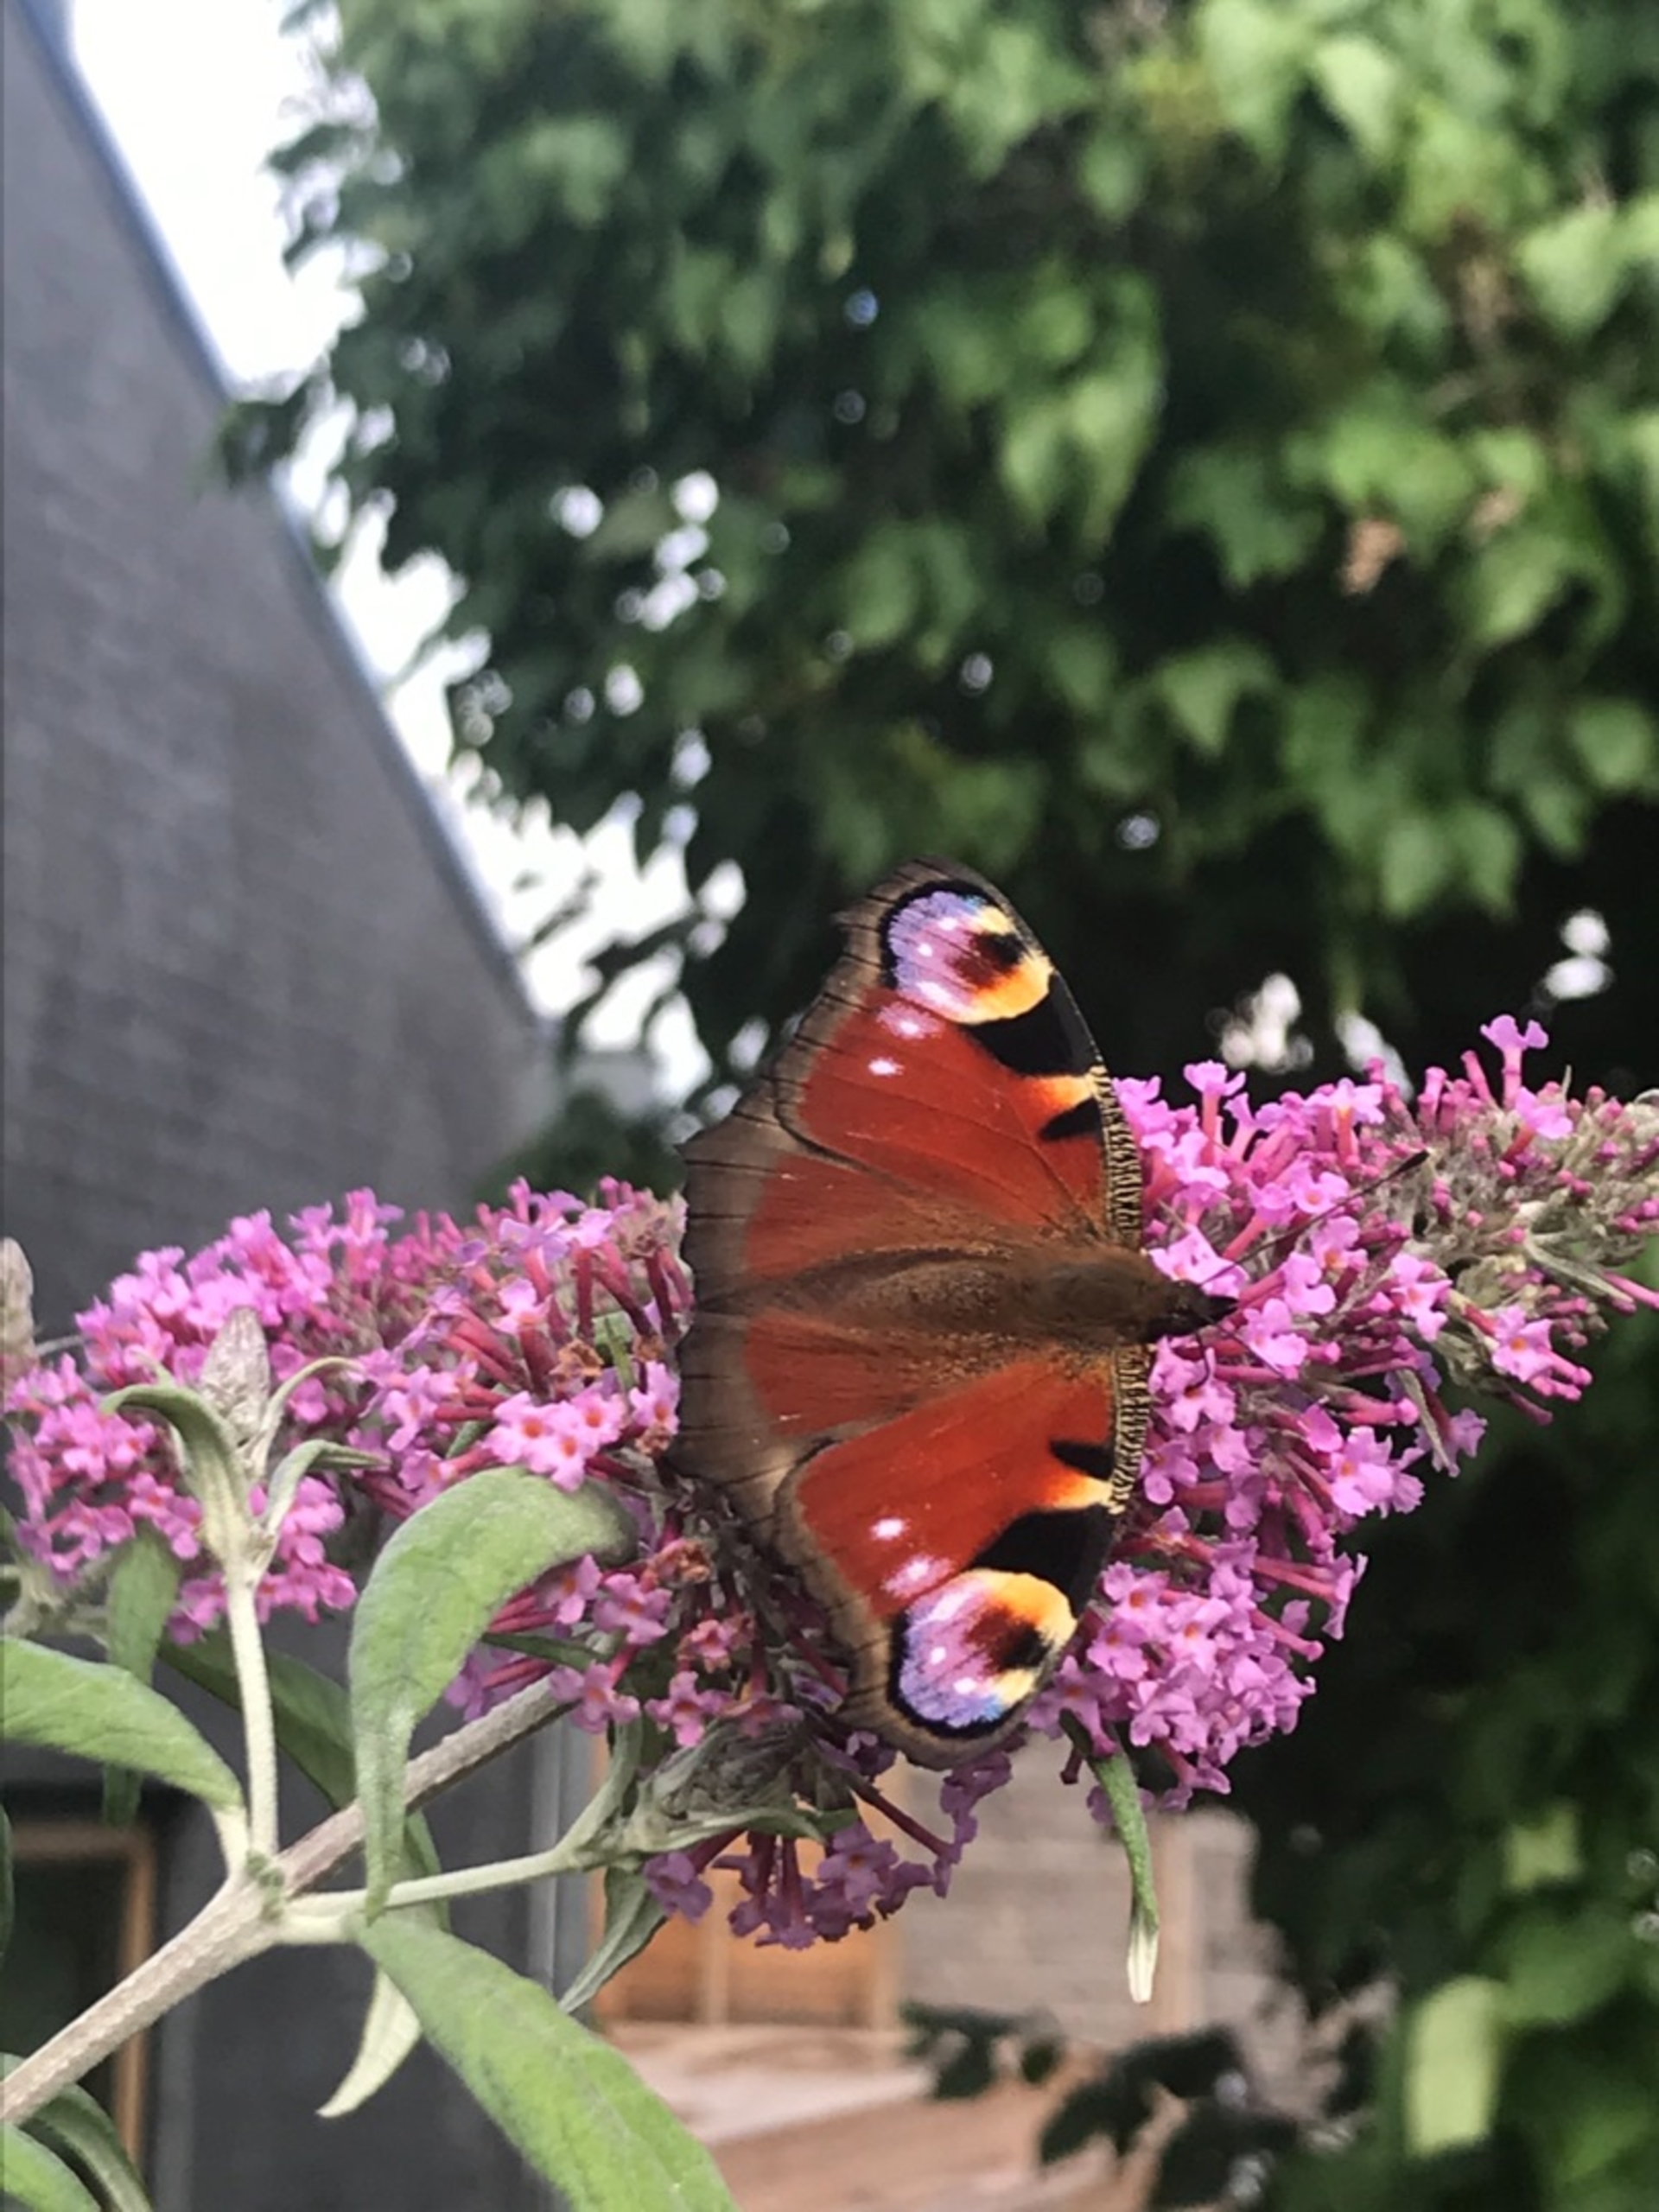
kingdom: Animalia
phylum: Arthropoda
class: Insecta
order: Lepidoptera
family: Nymphalidae
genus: Aglais
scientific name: Aglais io
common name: Dagpåfugleøje
